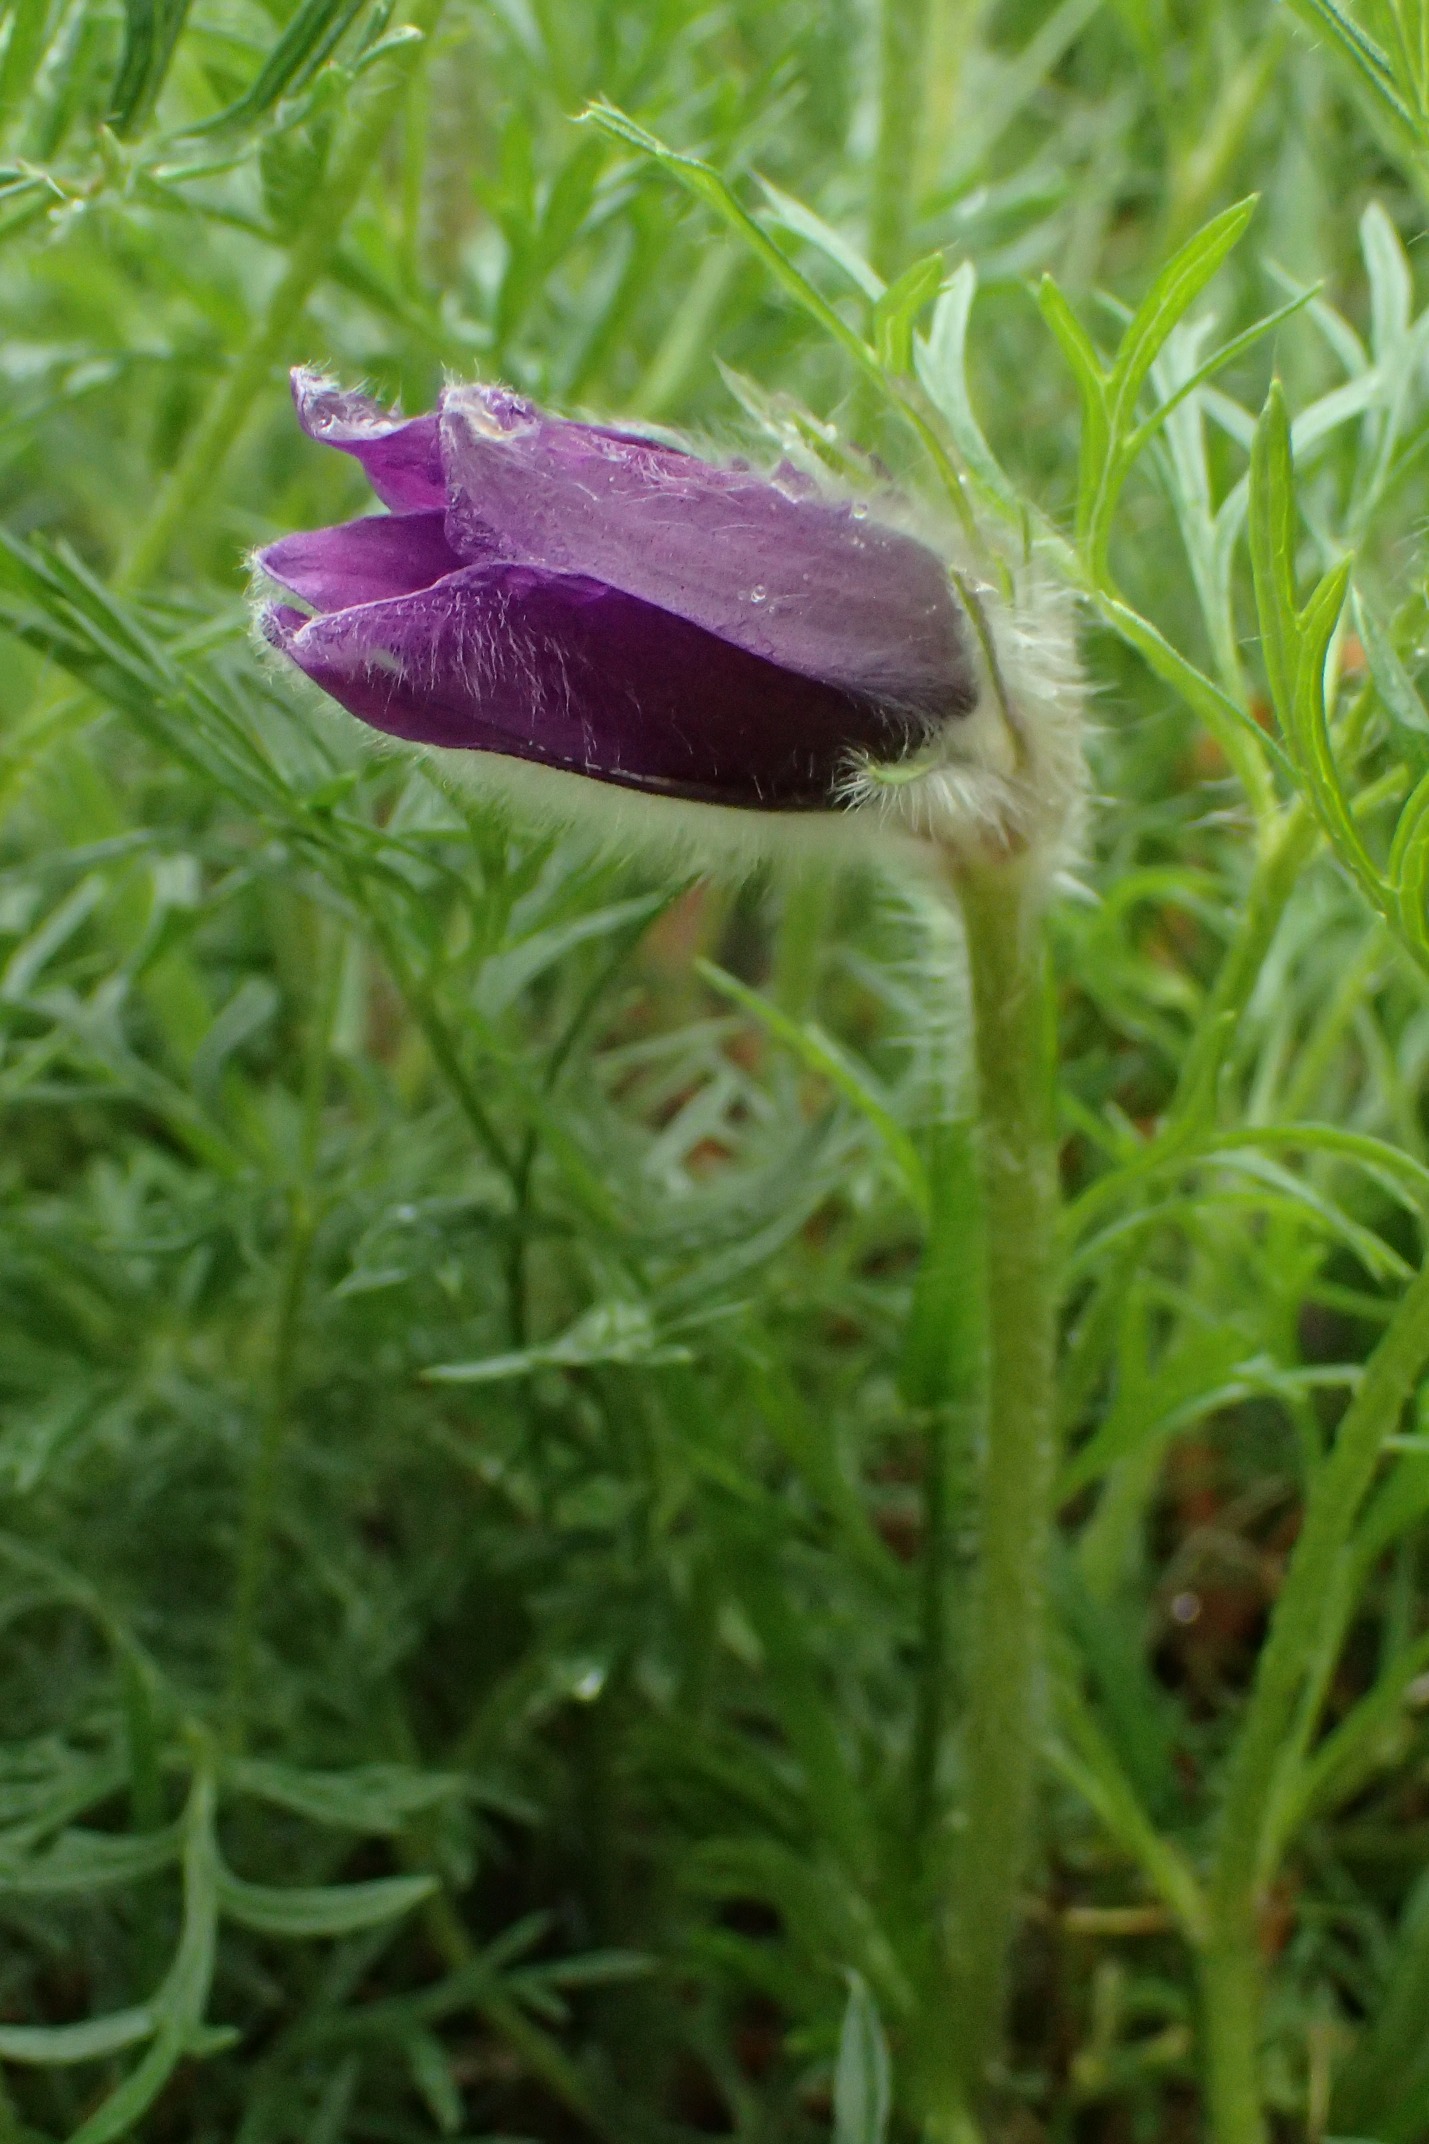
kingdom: Plantae
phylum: Tracheophyta
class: Magnoliopsida
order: Ranunculales
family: Ranunculaceae
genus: Pulsatilla
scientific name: Pulsatilla vulgaris
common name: Opret kobjælde
